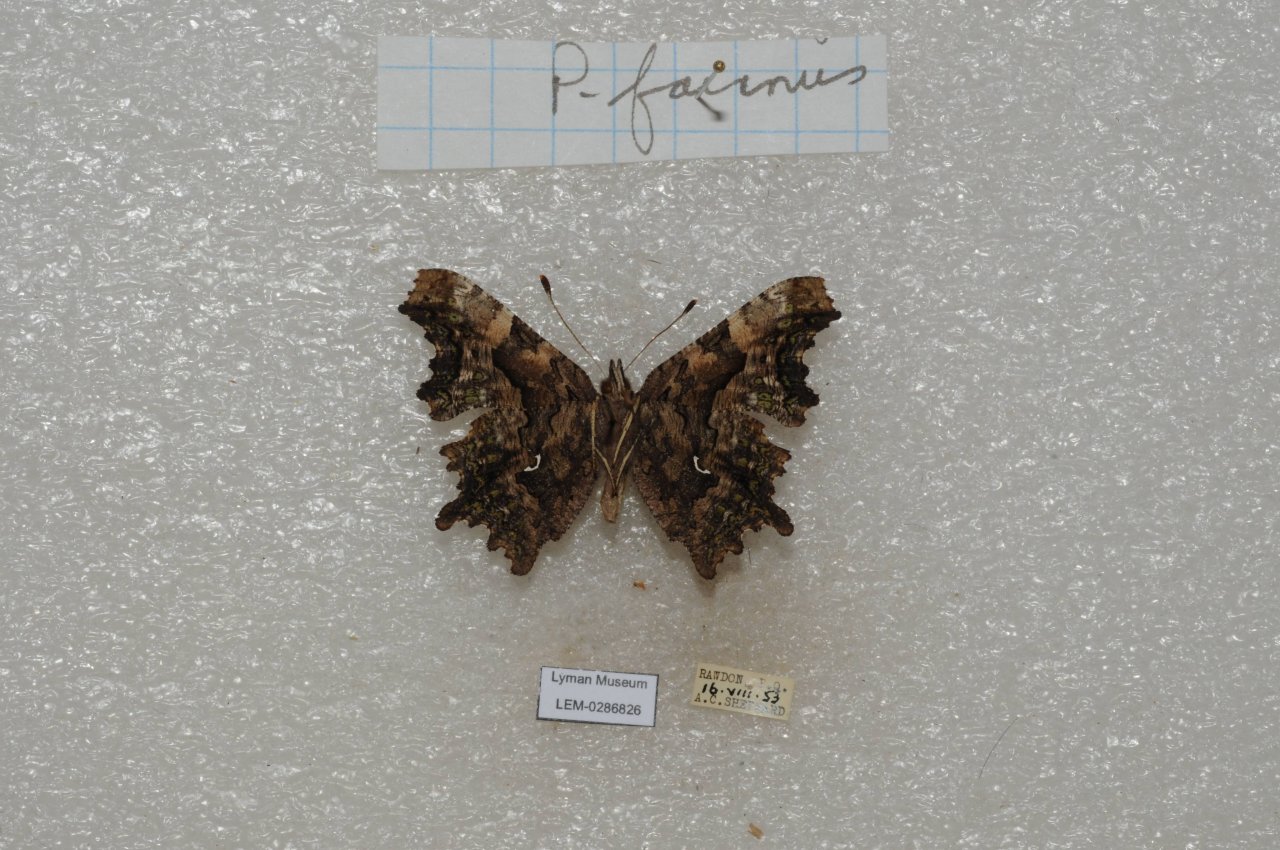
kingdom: Animalia
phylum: Arthropoda
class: Insecta
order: Lepidoptera
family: Nymphalidae
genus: Polygonia
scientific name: Polygonia faunus
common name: Green Comma
